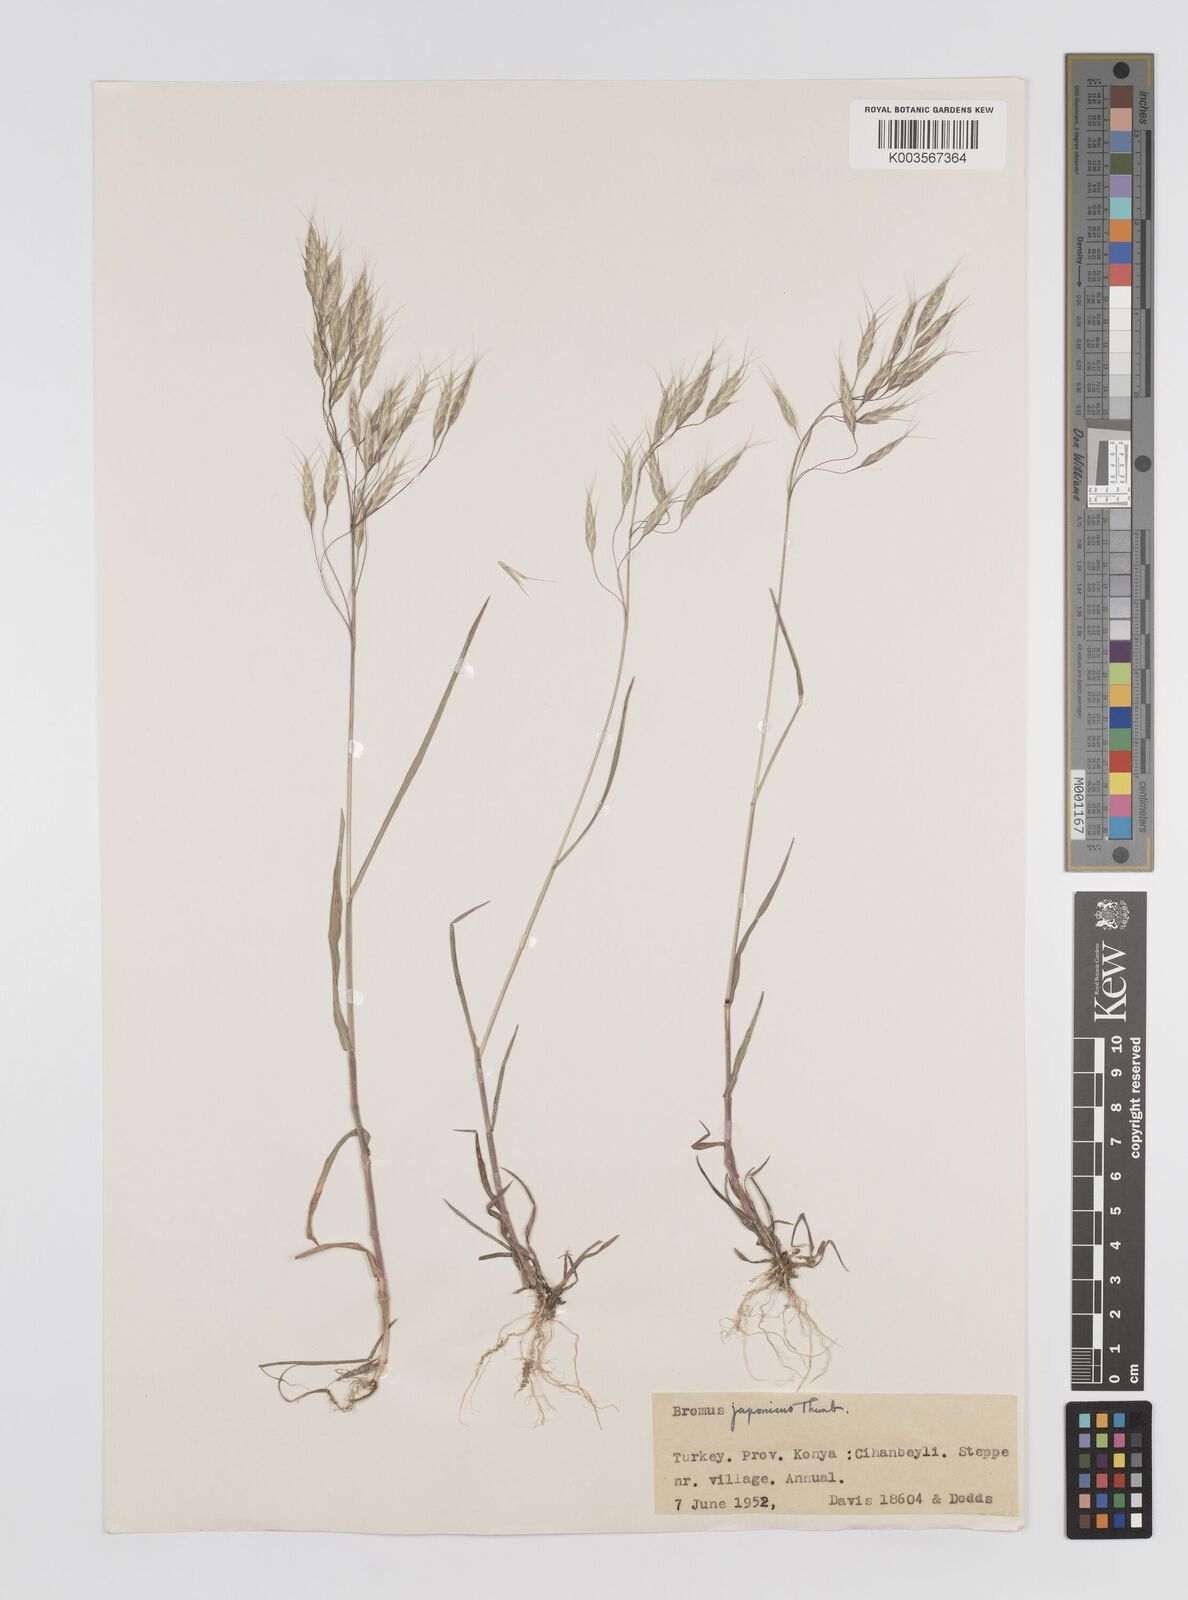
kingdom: Plantae
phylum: Tracheophyta
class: Liliopsida
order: Poales
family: Poaceae
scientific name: Poaceae
